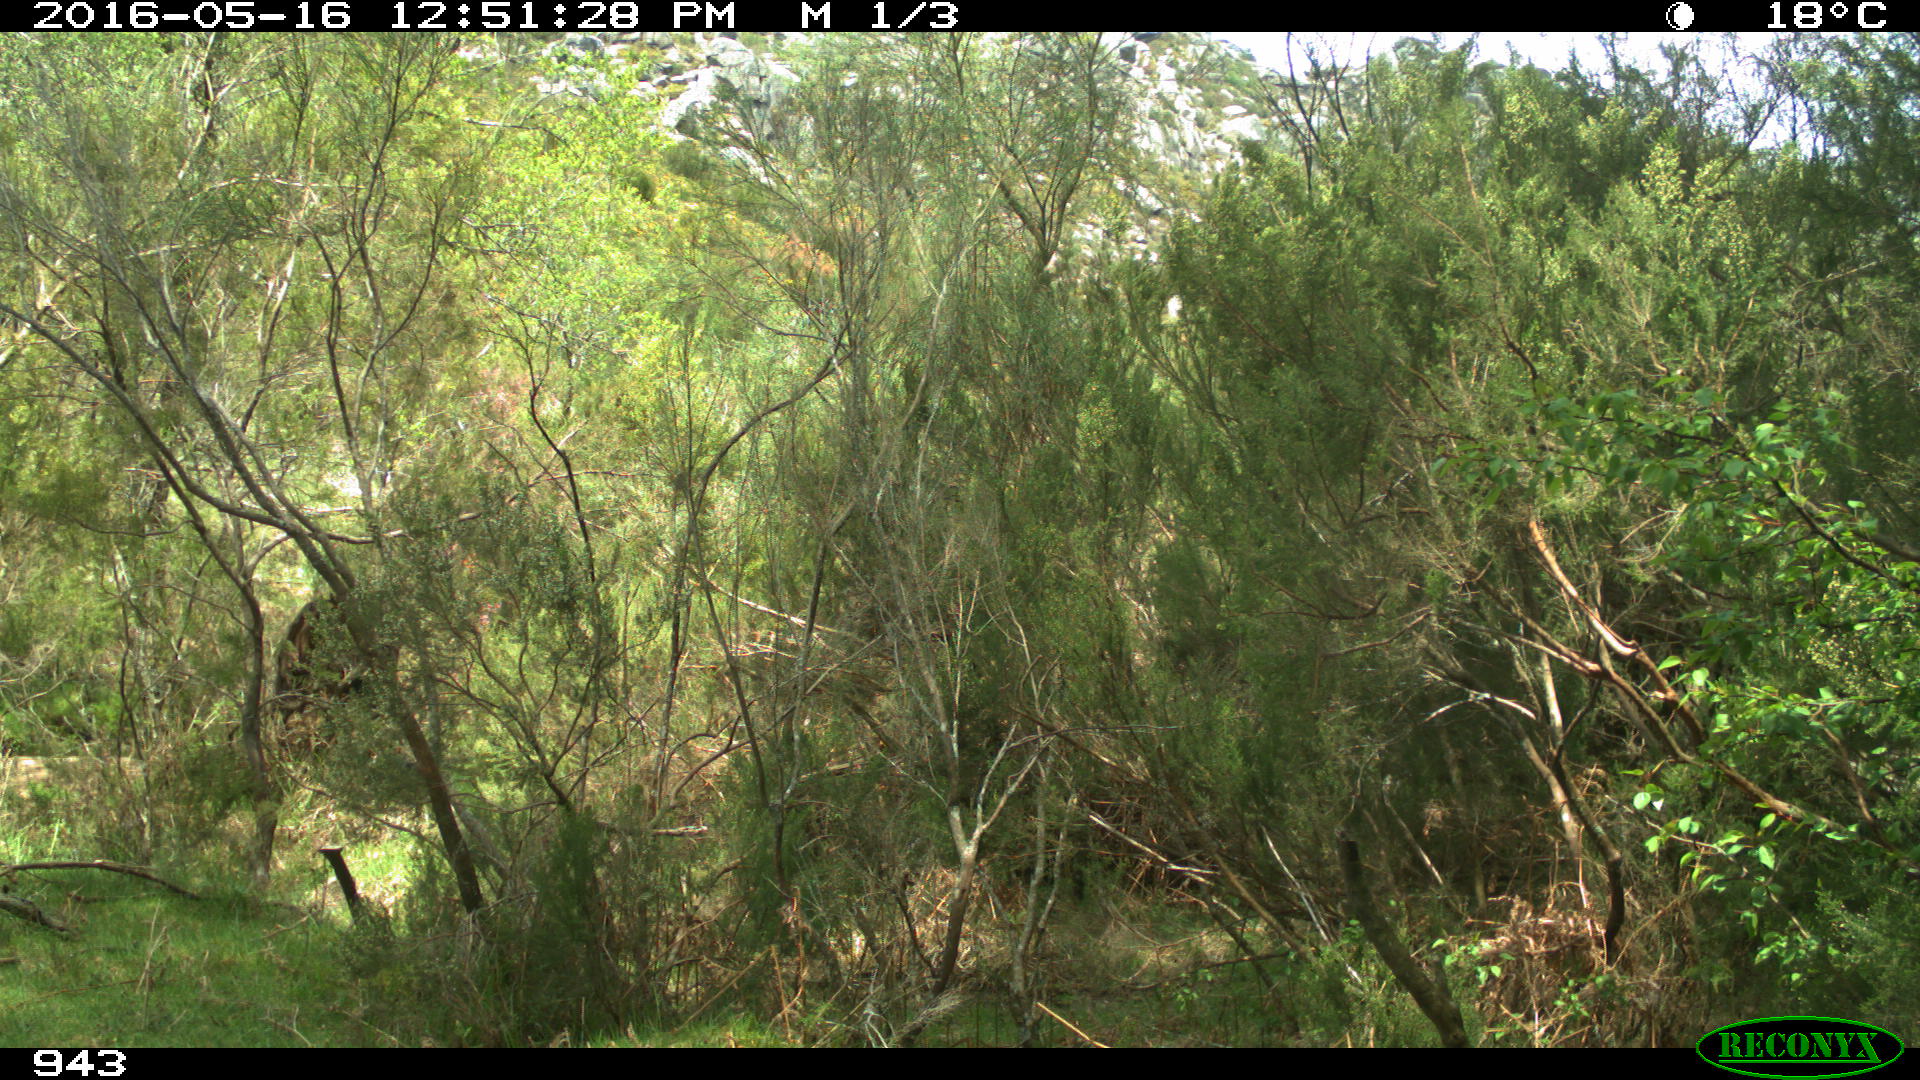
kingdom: Animalia
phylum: Chordata
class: Mammalia
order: Perissodactyla
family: Equidae
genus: Equus
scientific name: Equus caballus
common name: Horse
